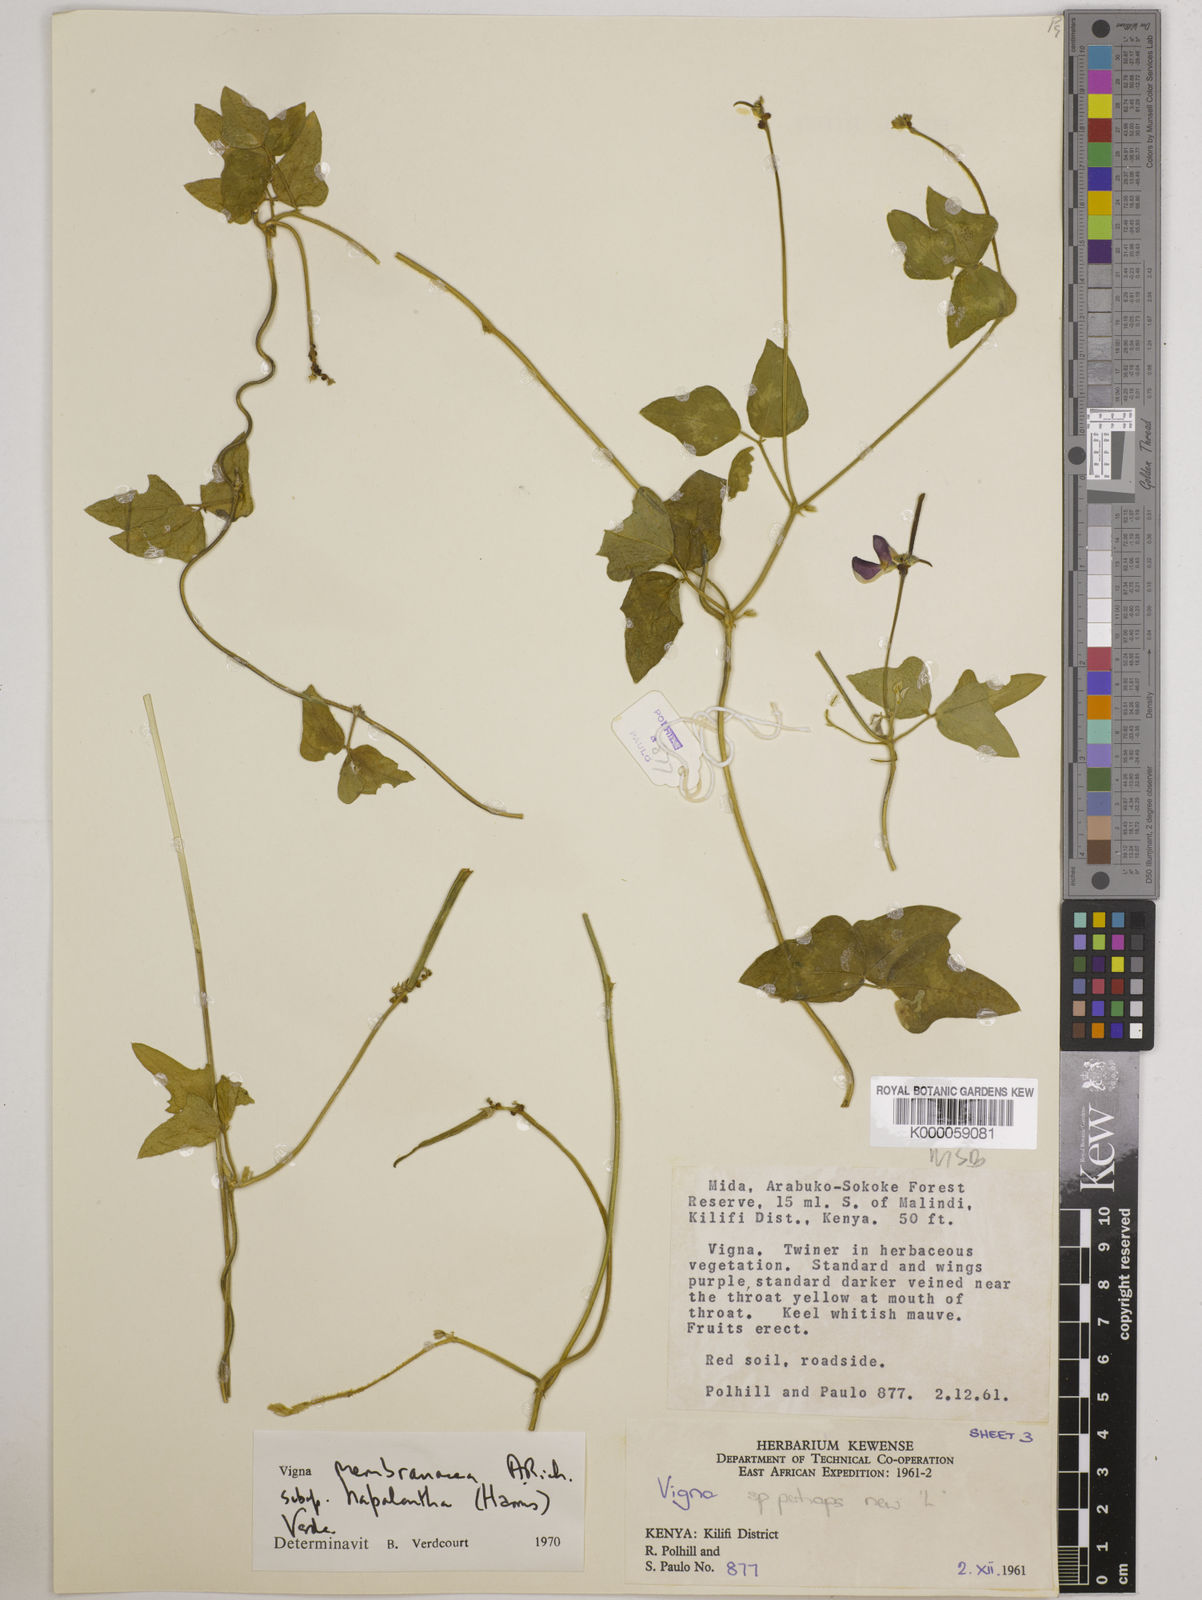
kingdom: Plantae
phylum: Tracheophyta
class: Magnoliopsida
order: Fabales
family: Fabaceae
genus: Vigna
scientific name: Vigna
